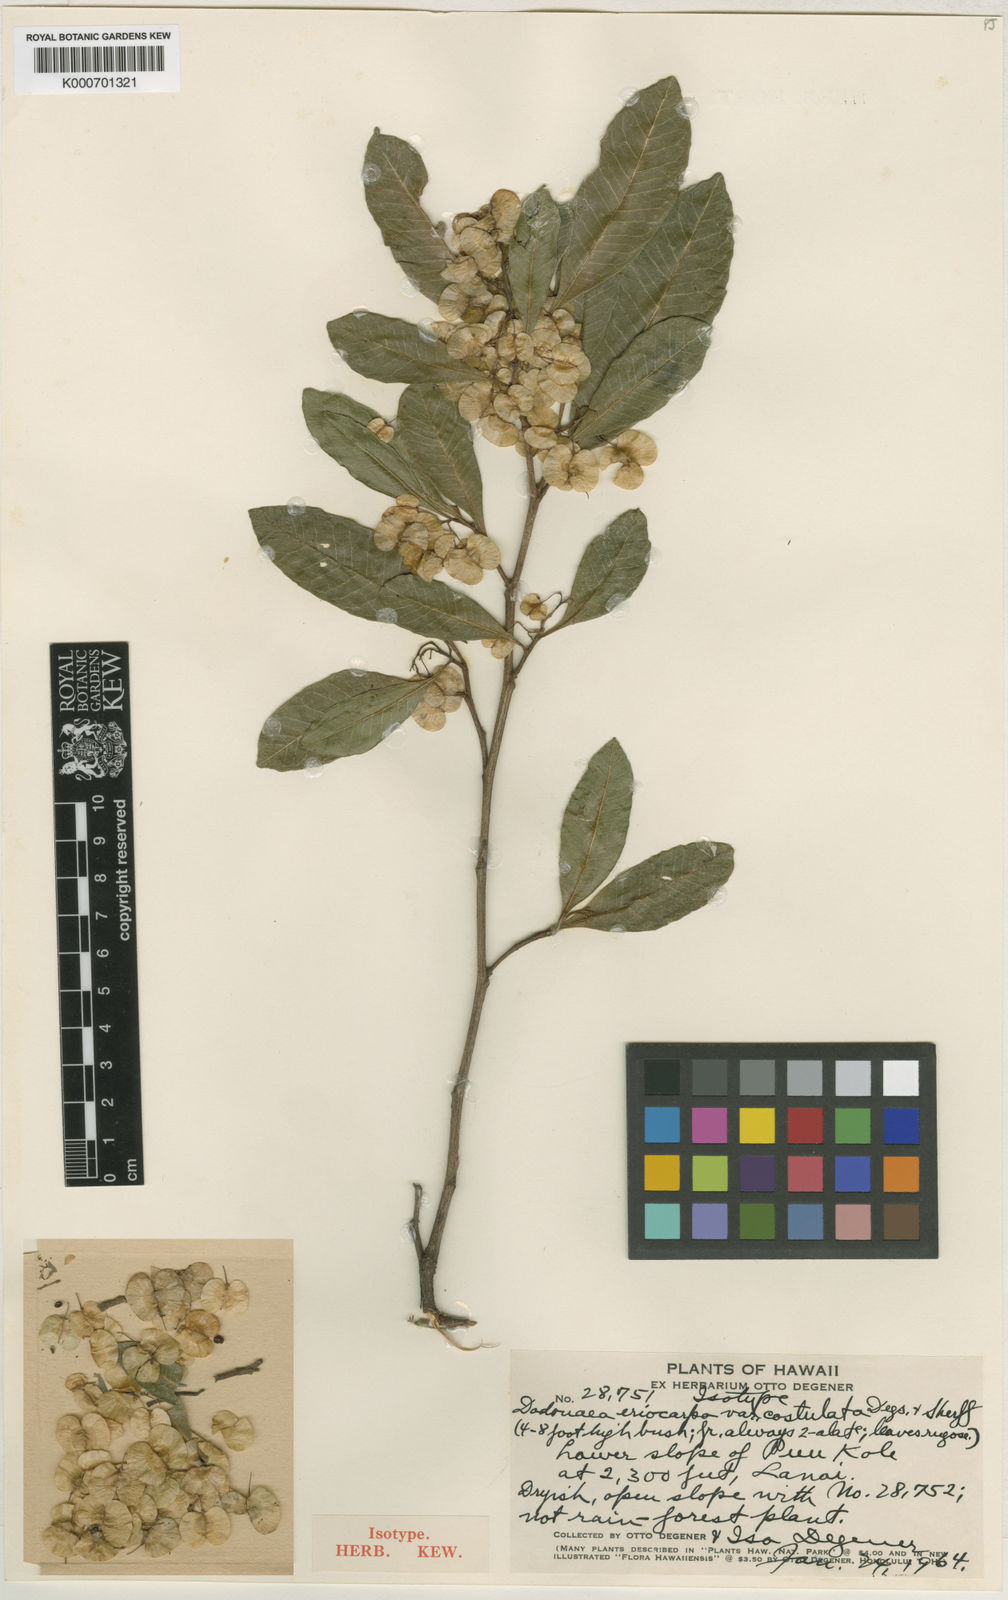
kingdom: Plantae
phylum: Tracheophyta
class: Magnoliopsida
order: Sapindales
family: Sapindaceae
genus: Dodonaea
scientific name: Dodonaea viscosa
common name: Hopbush
